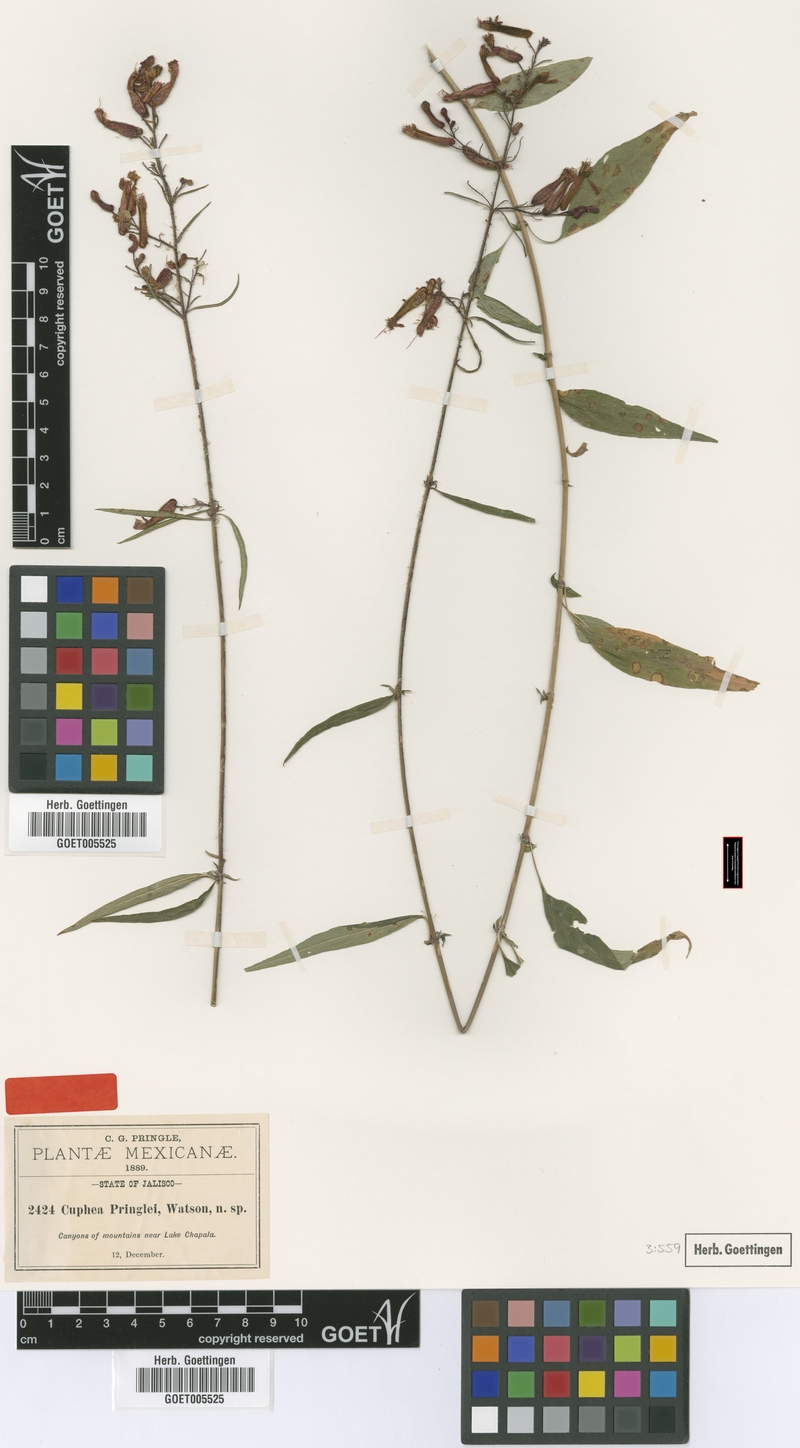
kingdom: Plantae
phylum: Tracheophyta
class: Magnoliopsida
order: Myrtales
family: Lythraceae
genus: Cuphea
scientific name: Cuphea hookeriana
